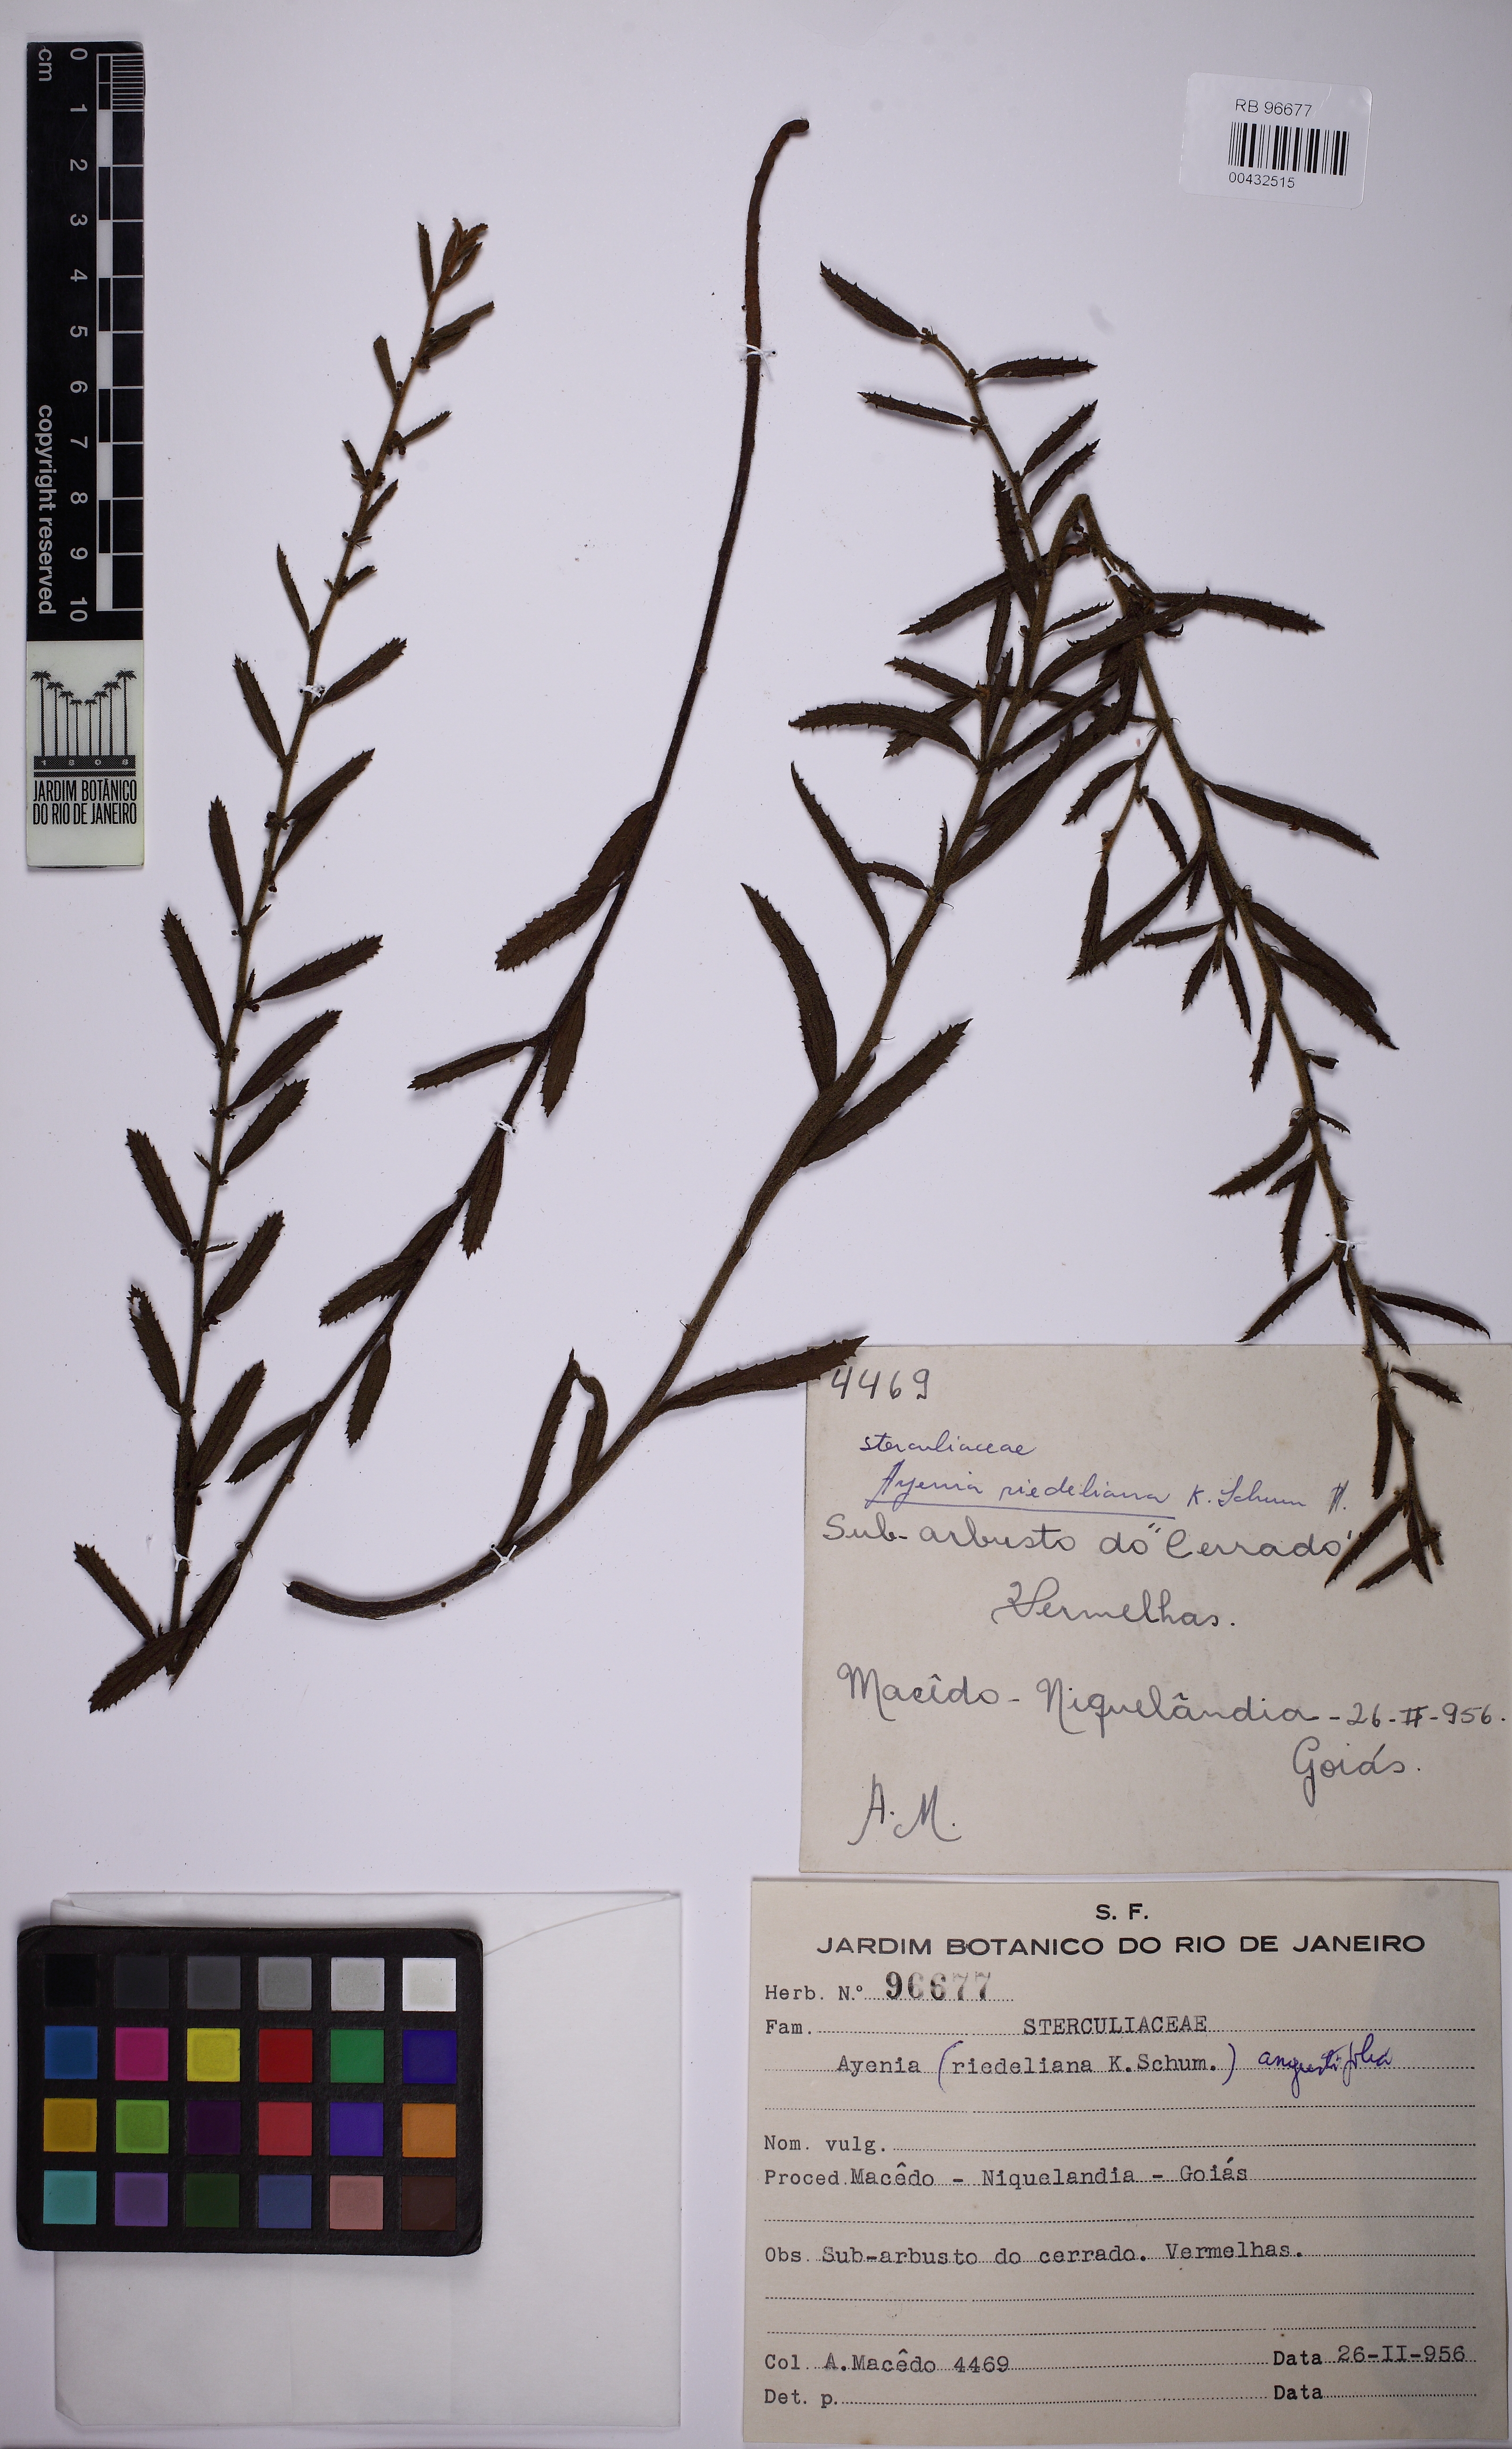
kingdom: Plantae
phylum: Tracheophyta
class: Magnoliopsida
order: Malvales
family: Malvaceae
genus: Ayenia
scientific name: Ayenia angustifolia
